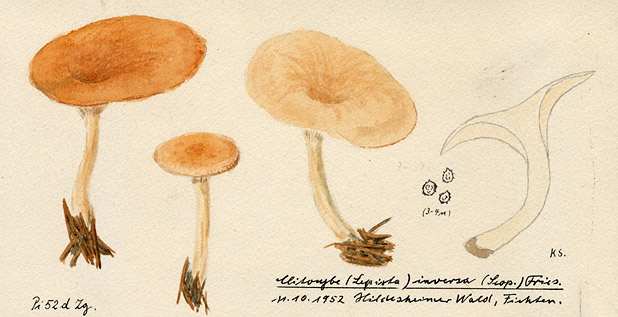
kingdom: Fungi
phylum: Basidiomycota
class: Agaricomycetes
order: Agaricales
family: Tricholomataceae
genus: Paralepista
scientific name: Paralepista flaccida
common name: Tawny funnel cap
